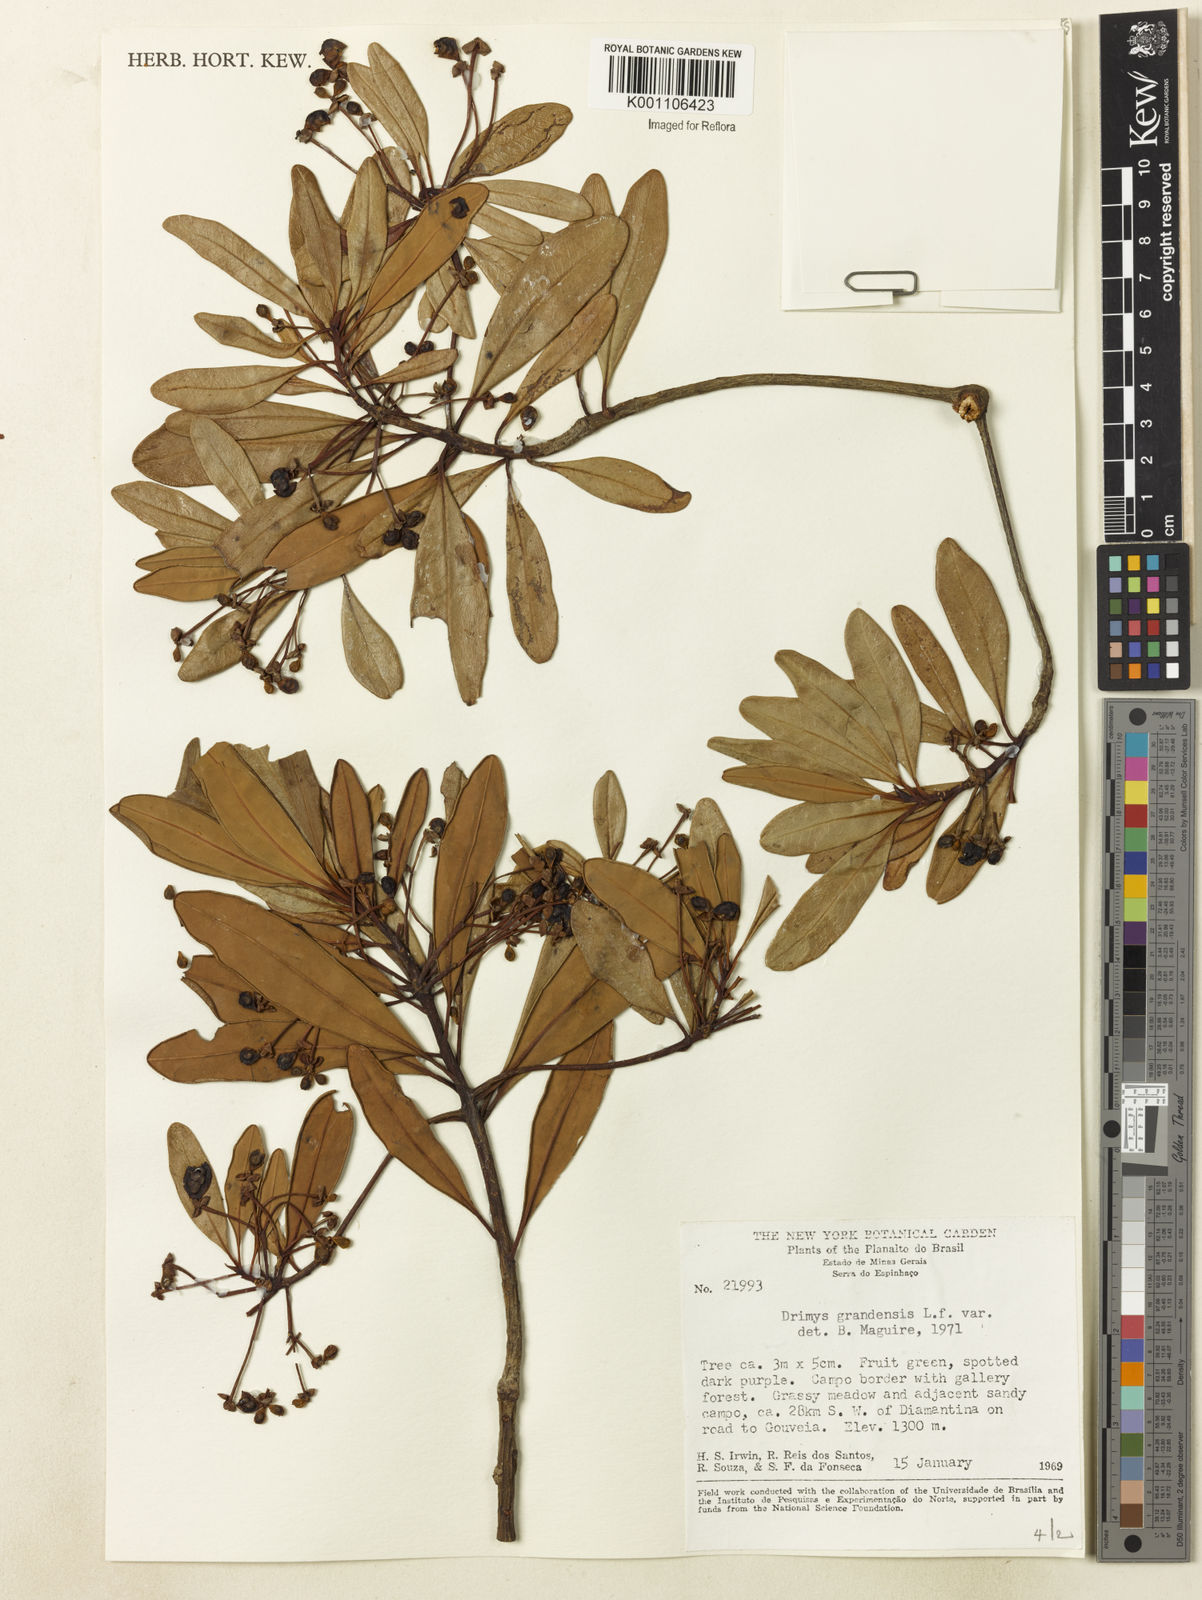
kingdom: Plantae
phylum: Tracheophyta
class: Magnoliopsida
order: Canellales
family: Winteraceae
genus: Drimys
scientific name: Drimys granadensis
